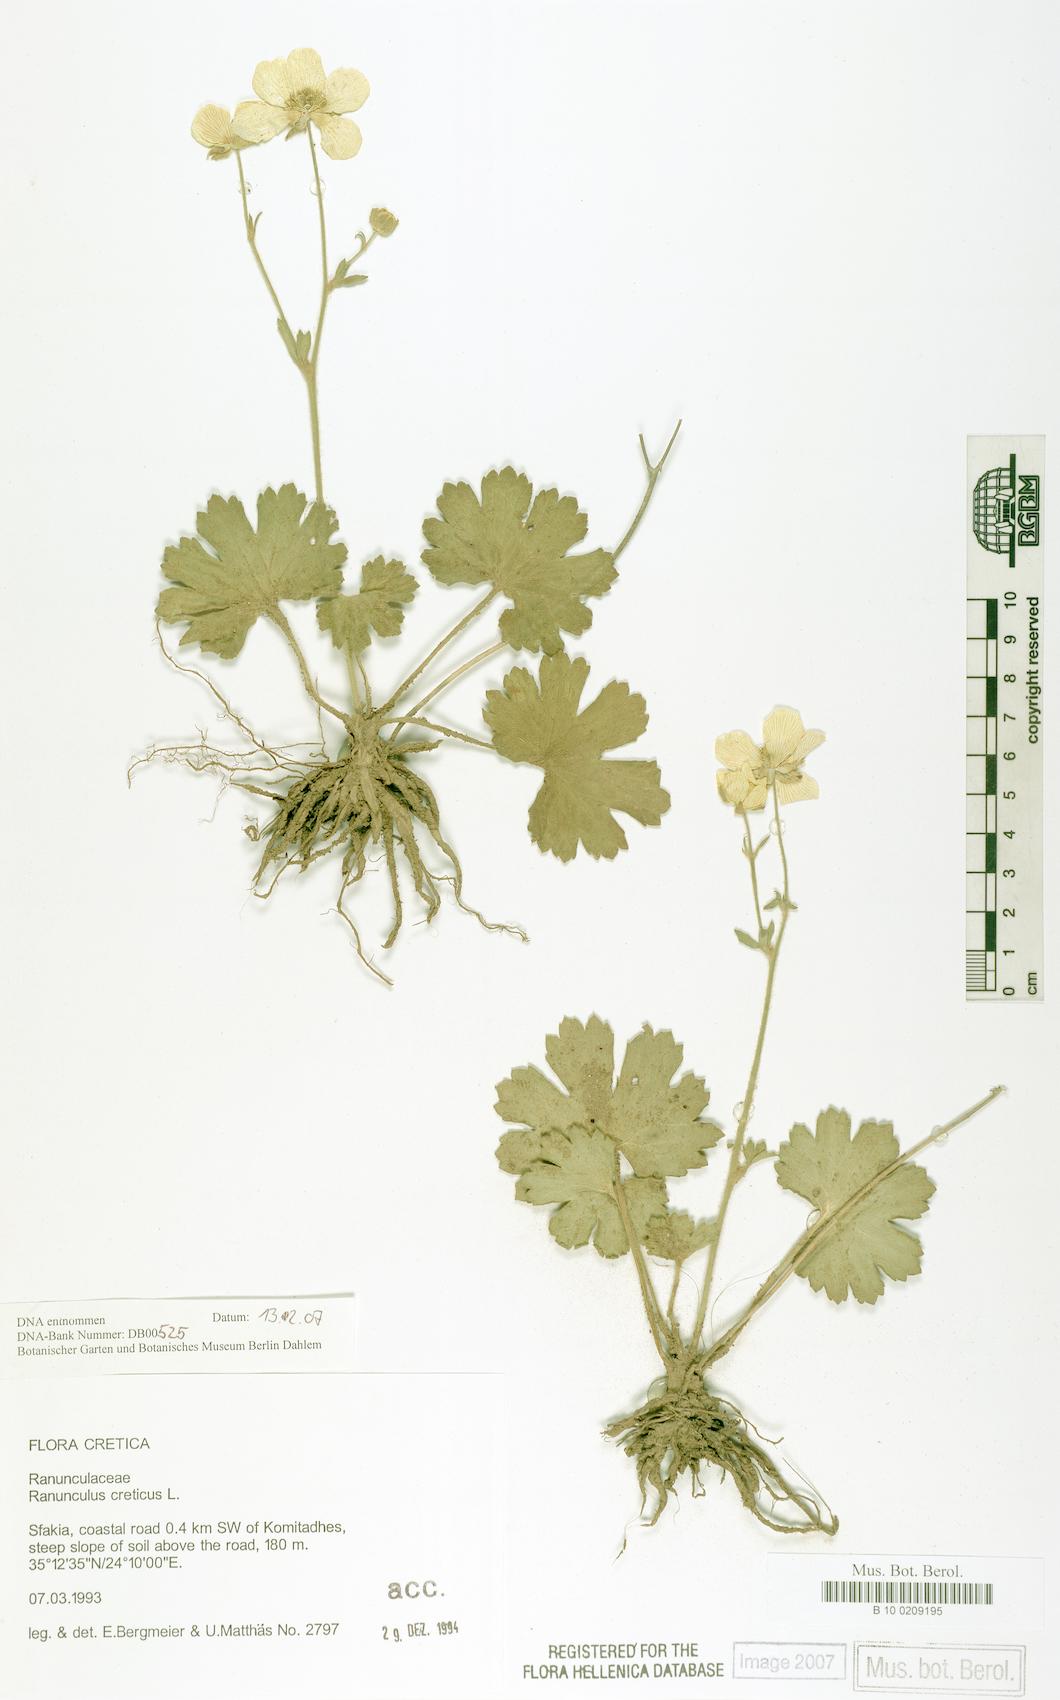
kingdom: Plantae
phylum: Tracheophyta
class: Magnoliopsida
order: Ranunculales
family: Ranunculaceae
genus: Ranunculus
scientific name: Ranunculus creticus
